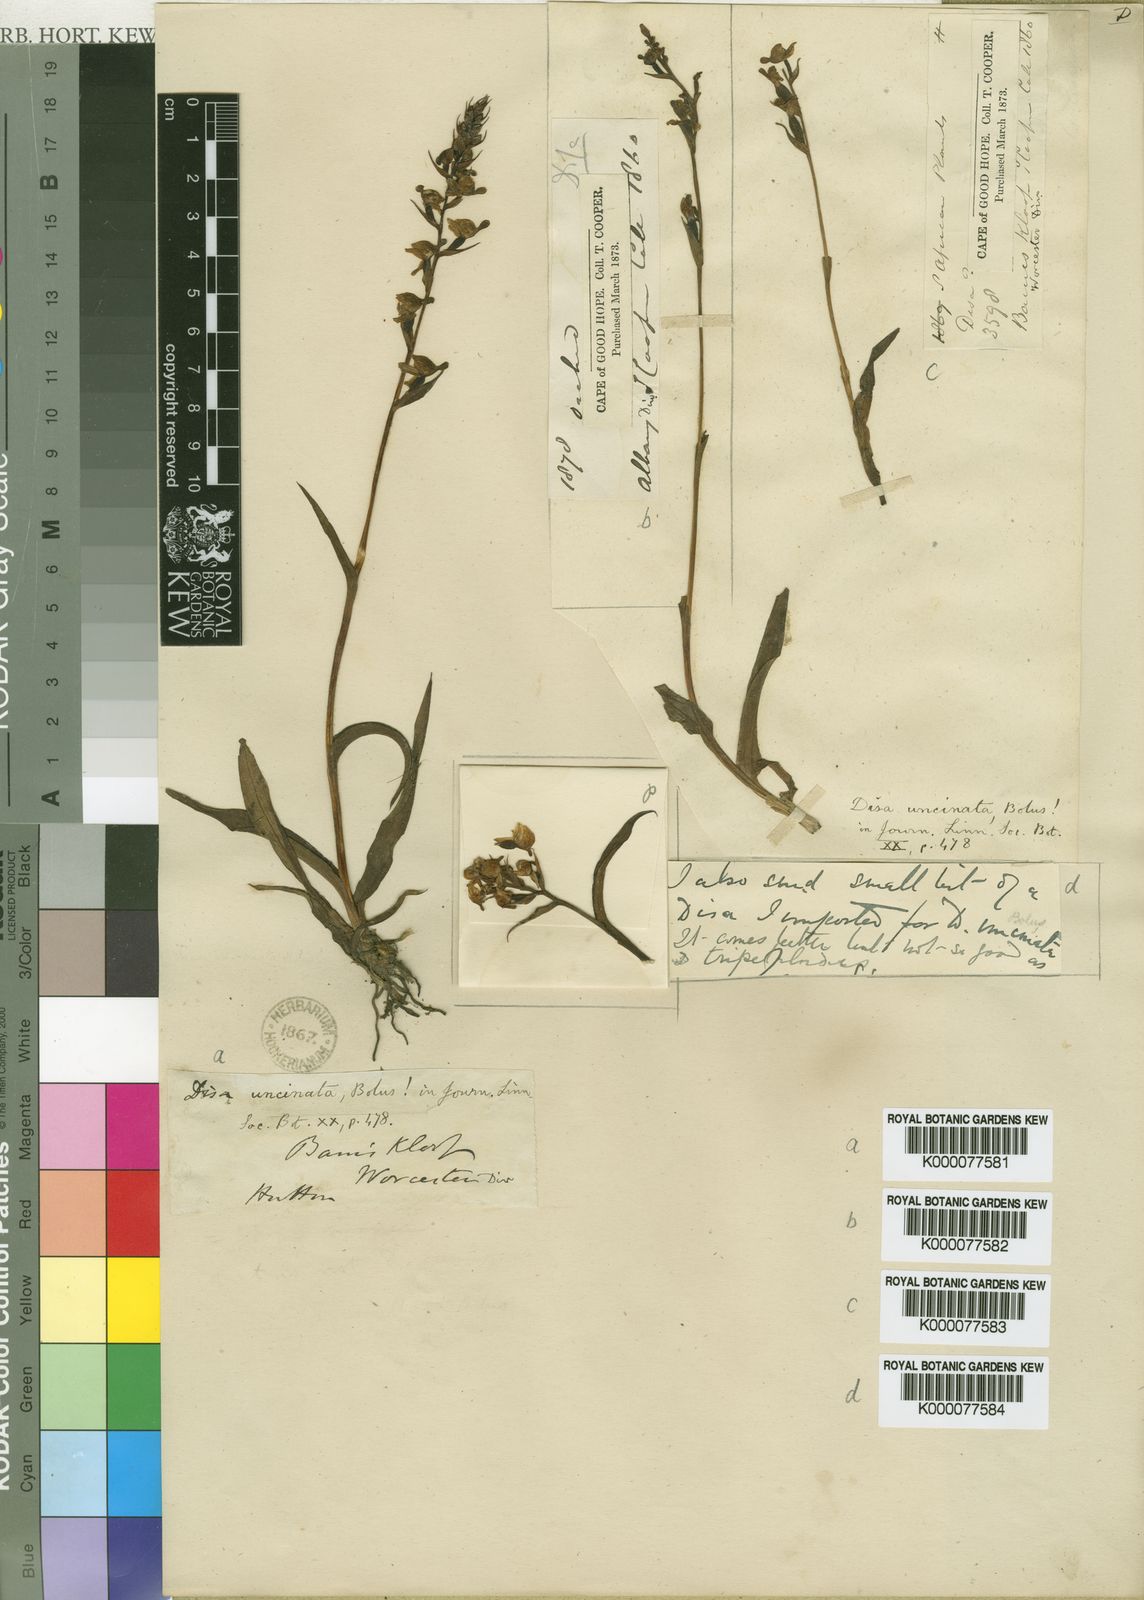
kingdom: Plantae
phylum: Tracheophyta
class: Liliopsida
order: Asparagales
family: Orchidaceae
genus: Disa
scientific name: Disa uncinata
